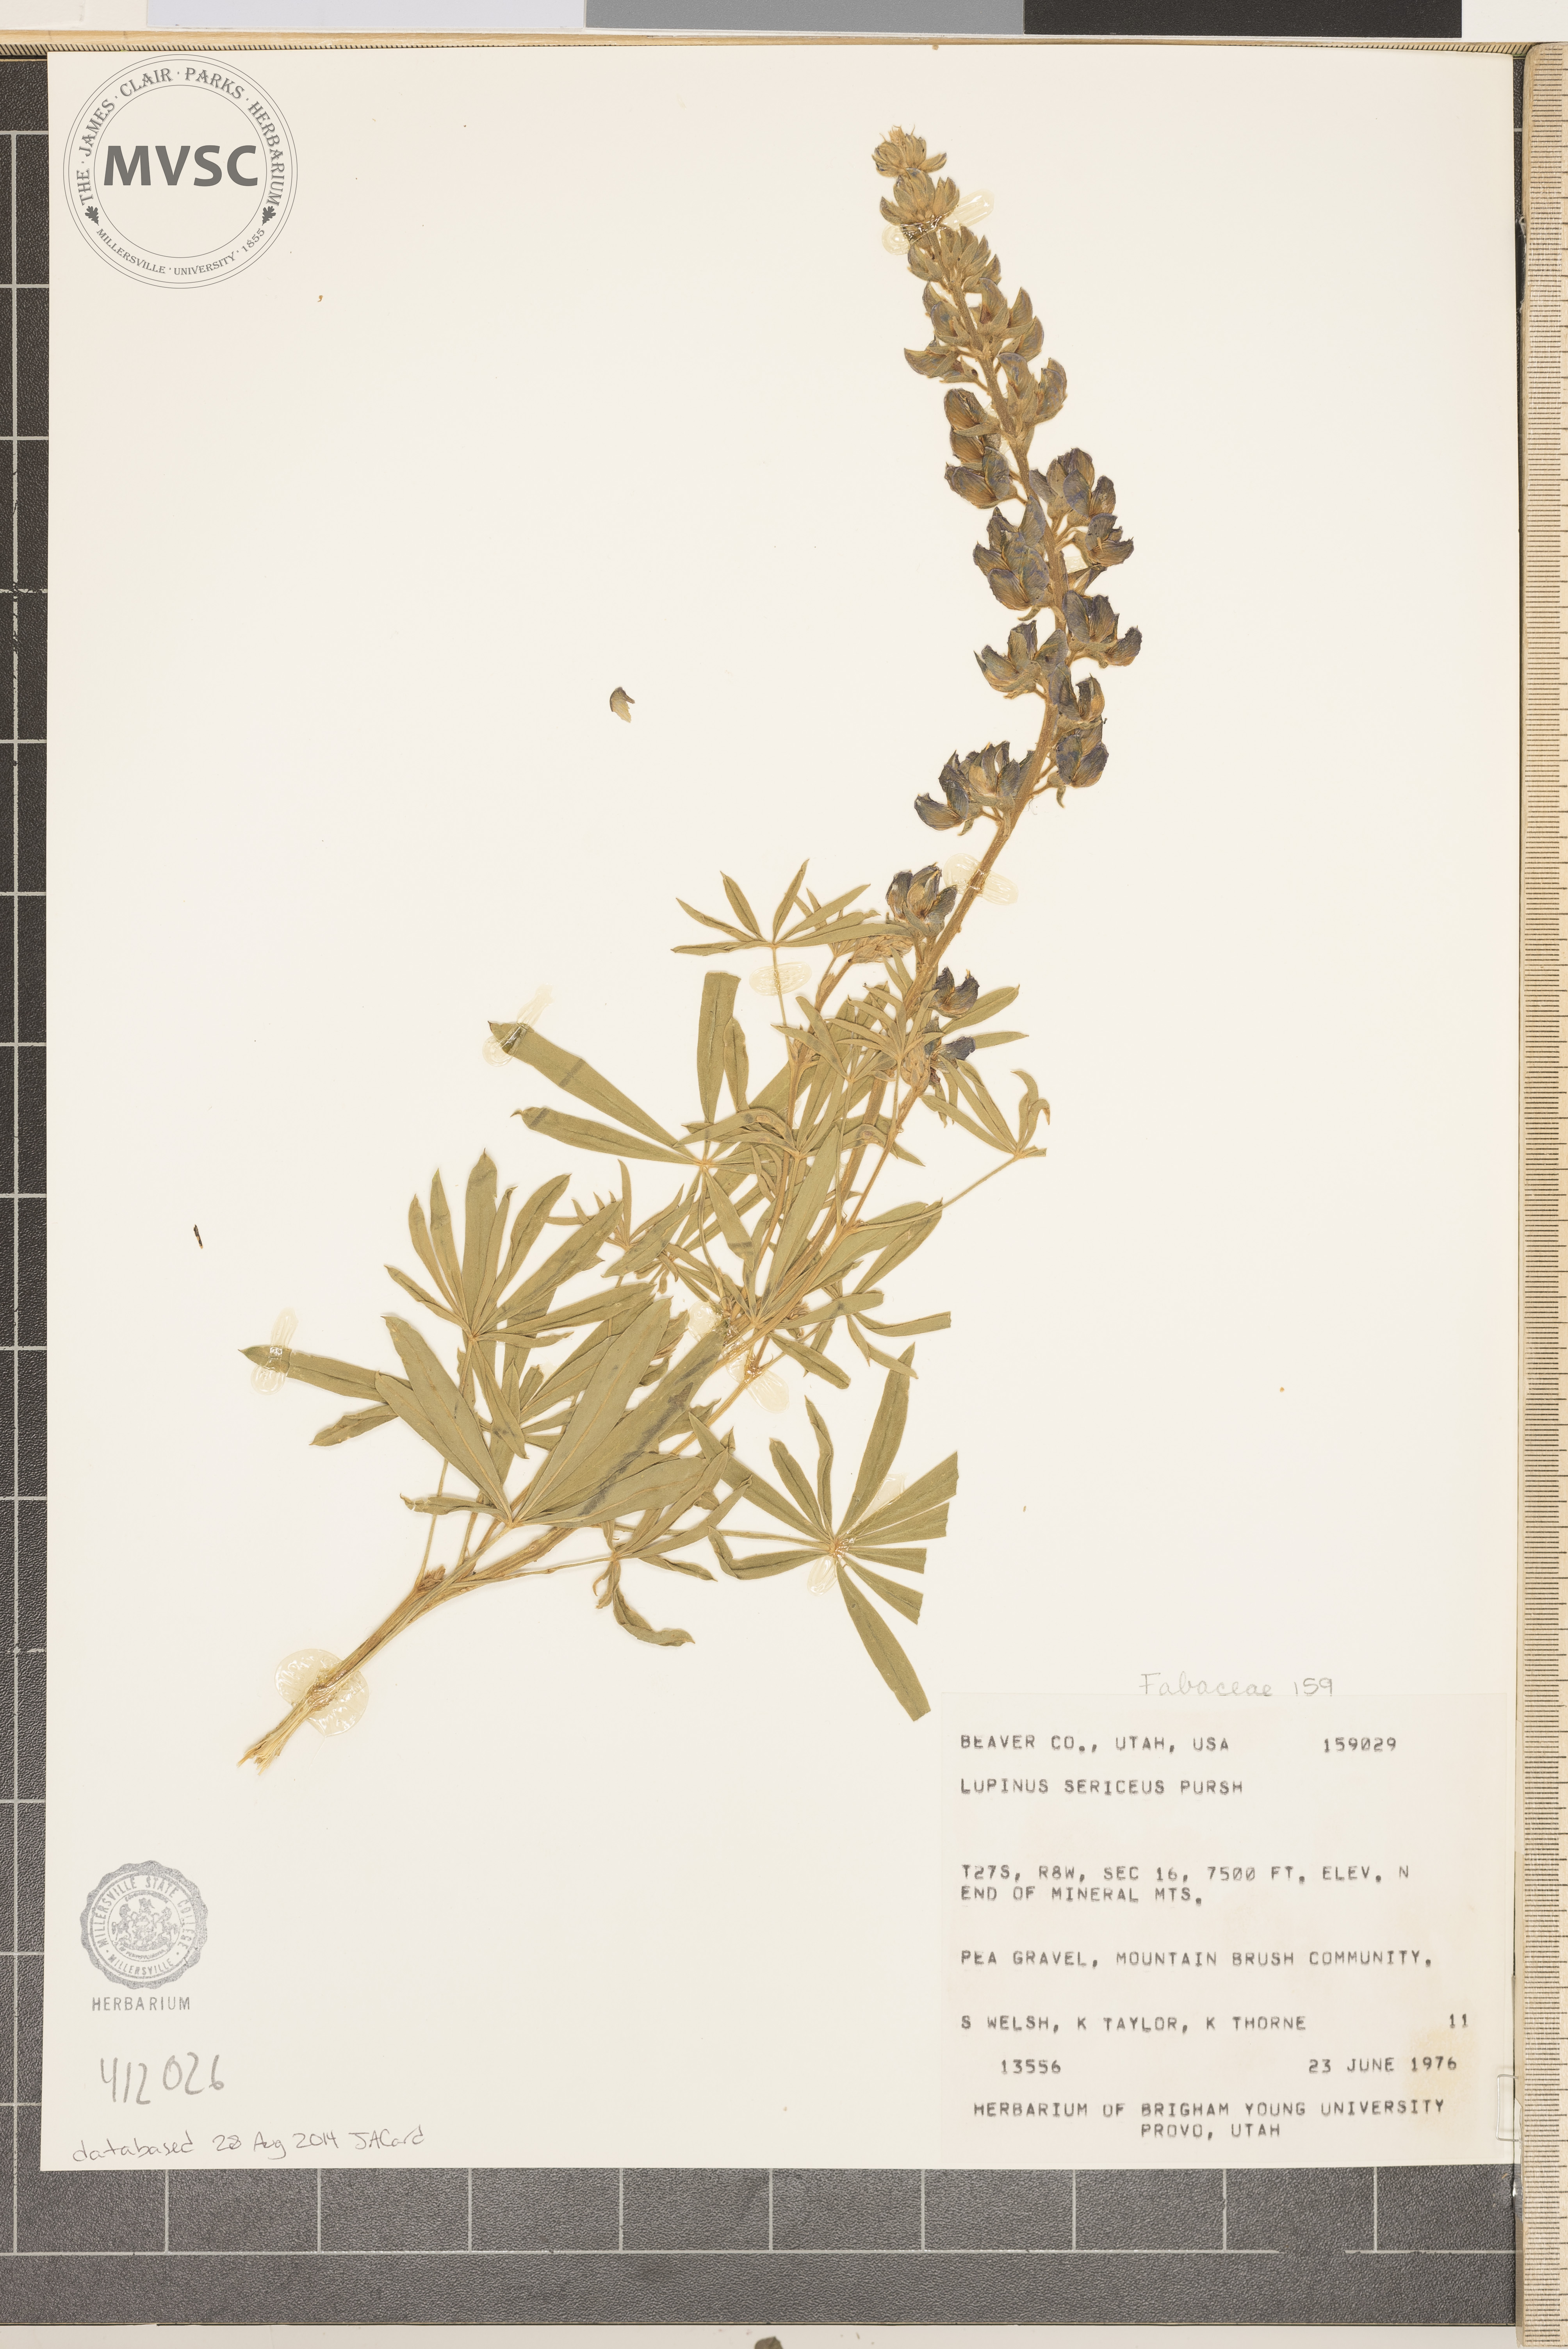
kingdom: Plantae
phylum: Tracheophyta
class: Magnoliopsida
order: Fabales
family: Fabaceae
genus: Lupinus
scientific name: Lupinus sericeus
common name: Silky lupine
